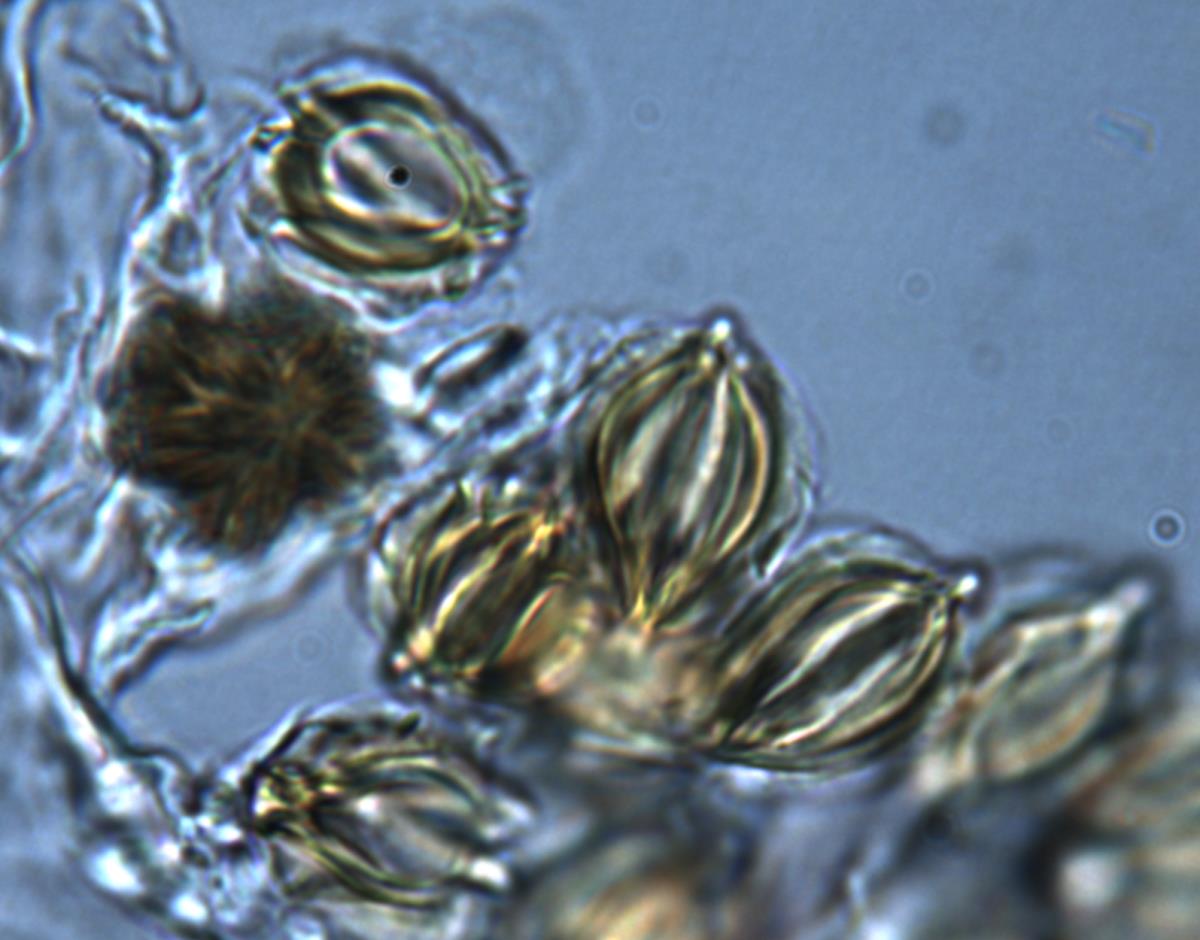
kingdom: Fungi
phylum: Basidiomycota
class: Agaricomycetes
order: Hysterangiales
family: Gallaceaceae
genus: Austrogautieria
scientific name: Austrogautieria
